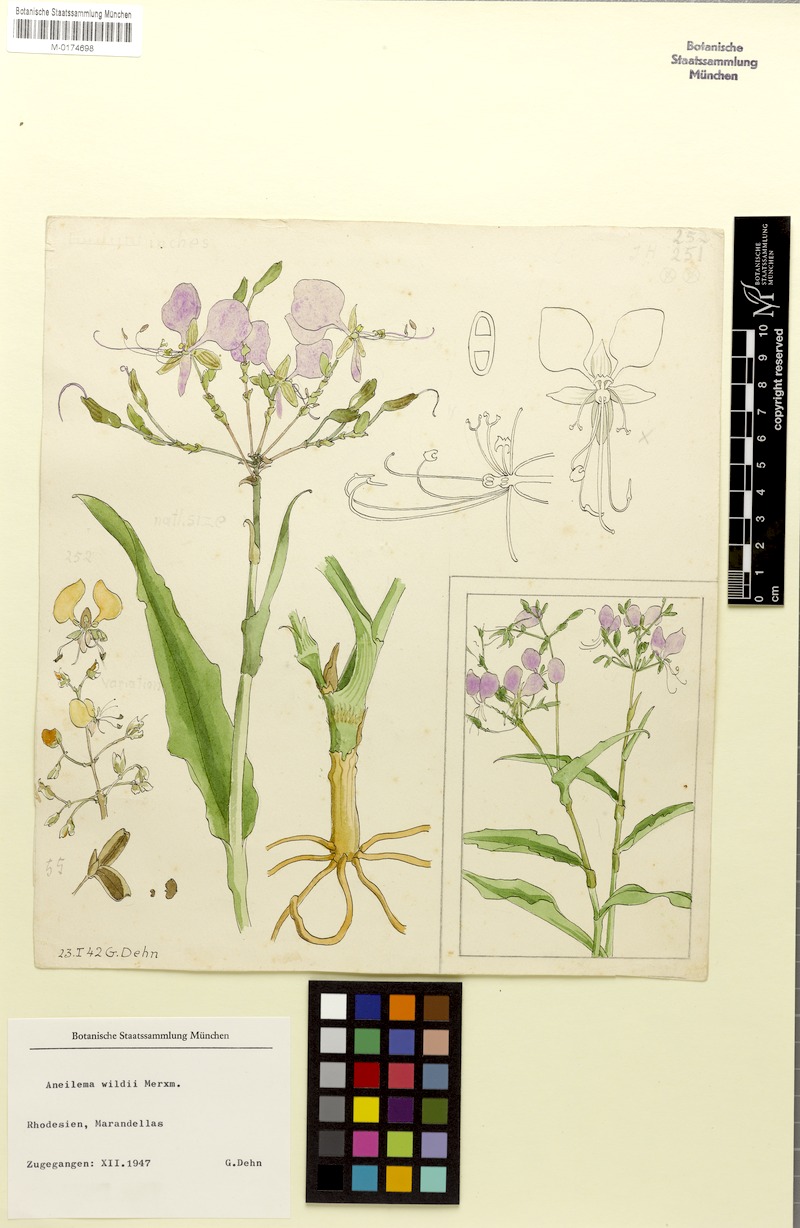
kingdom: Plantae
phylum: Tracheophyta
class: Liliopsida
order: Commelinales
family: Commelinaceae
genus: Aneilema
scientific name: Aneilema hockii
